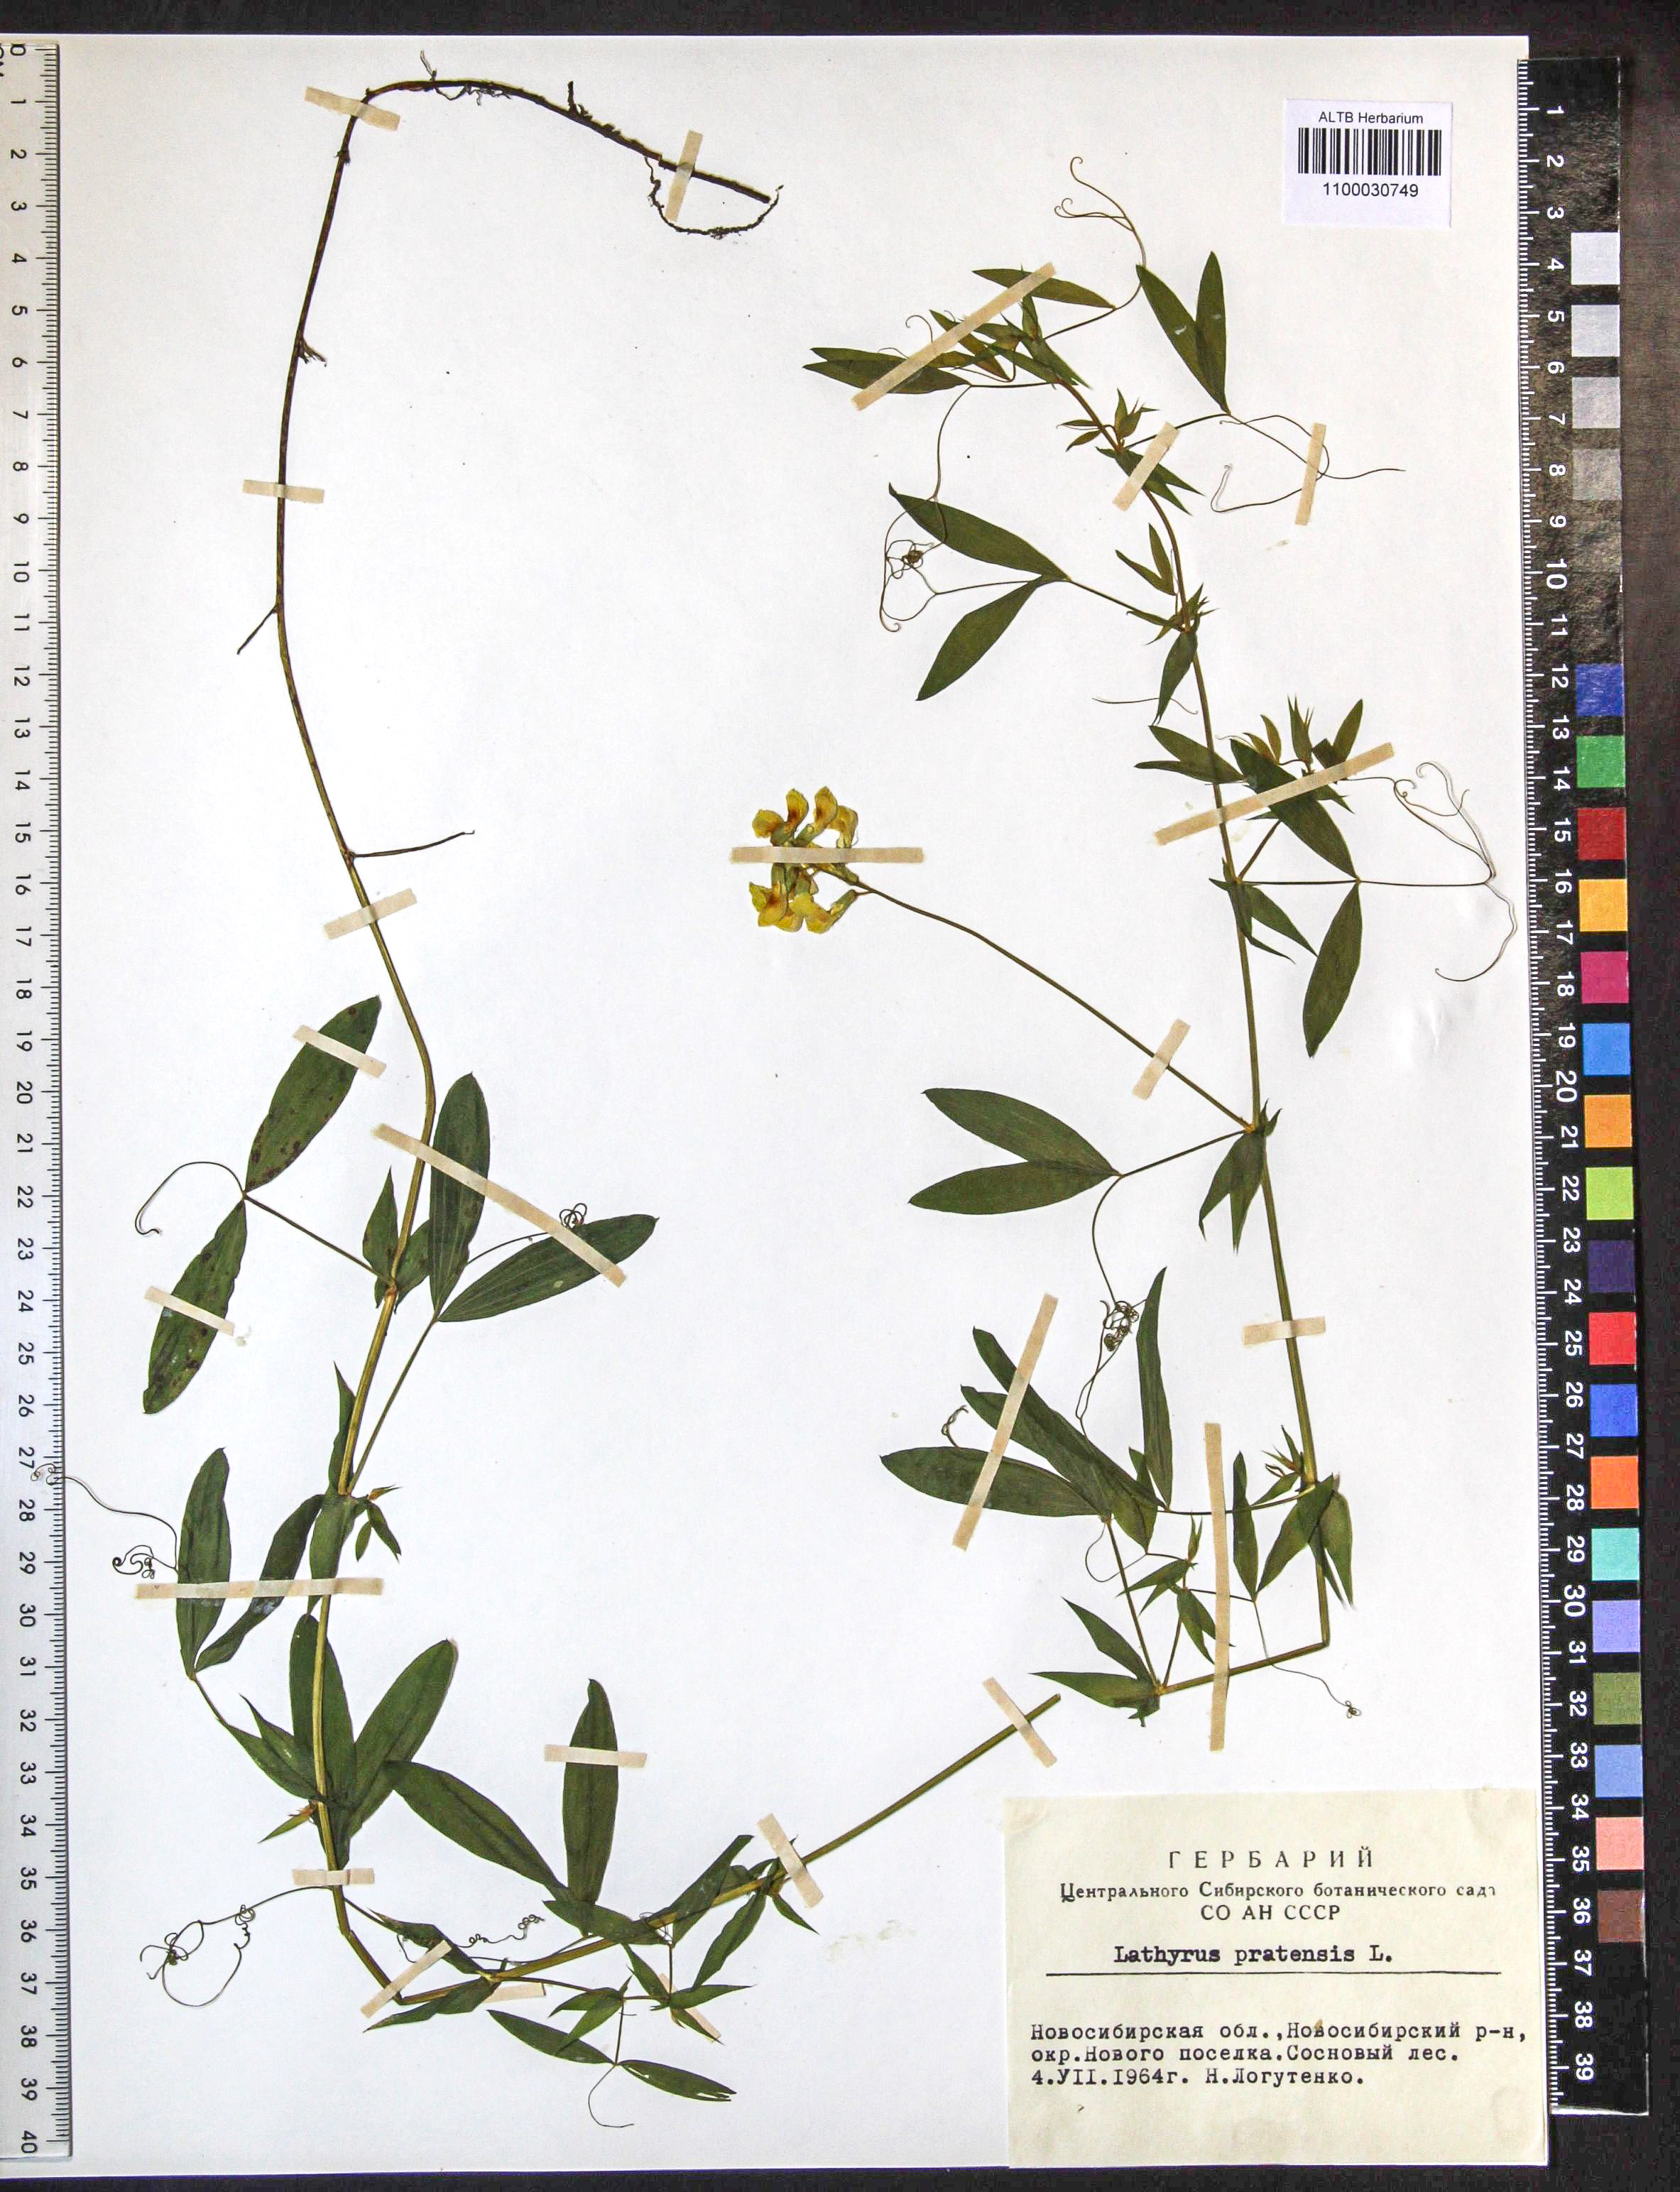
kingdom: Plantae
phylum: Tracheophyta
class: Magnoliopsida
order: Fabales
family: Fabaceae
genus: Lathyrus
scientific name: Lathyrus pratensis
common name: Meadow vetchling
